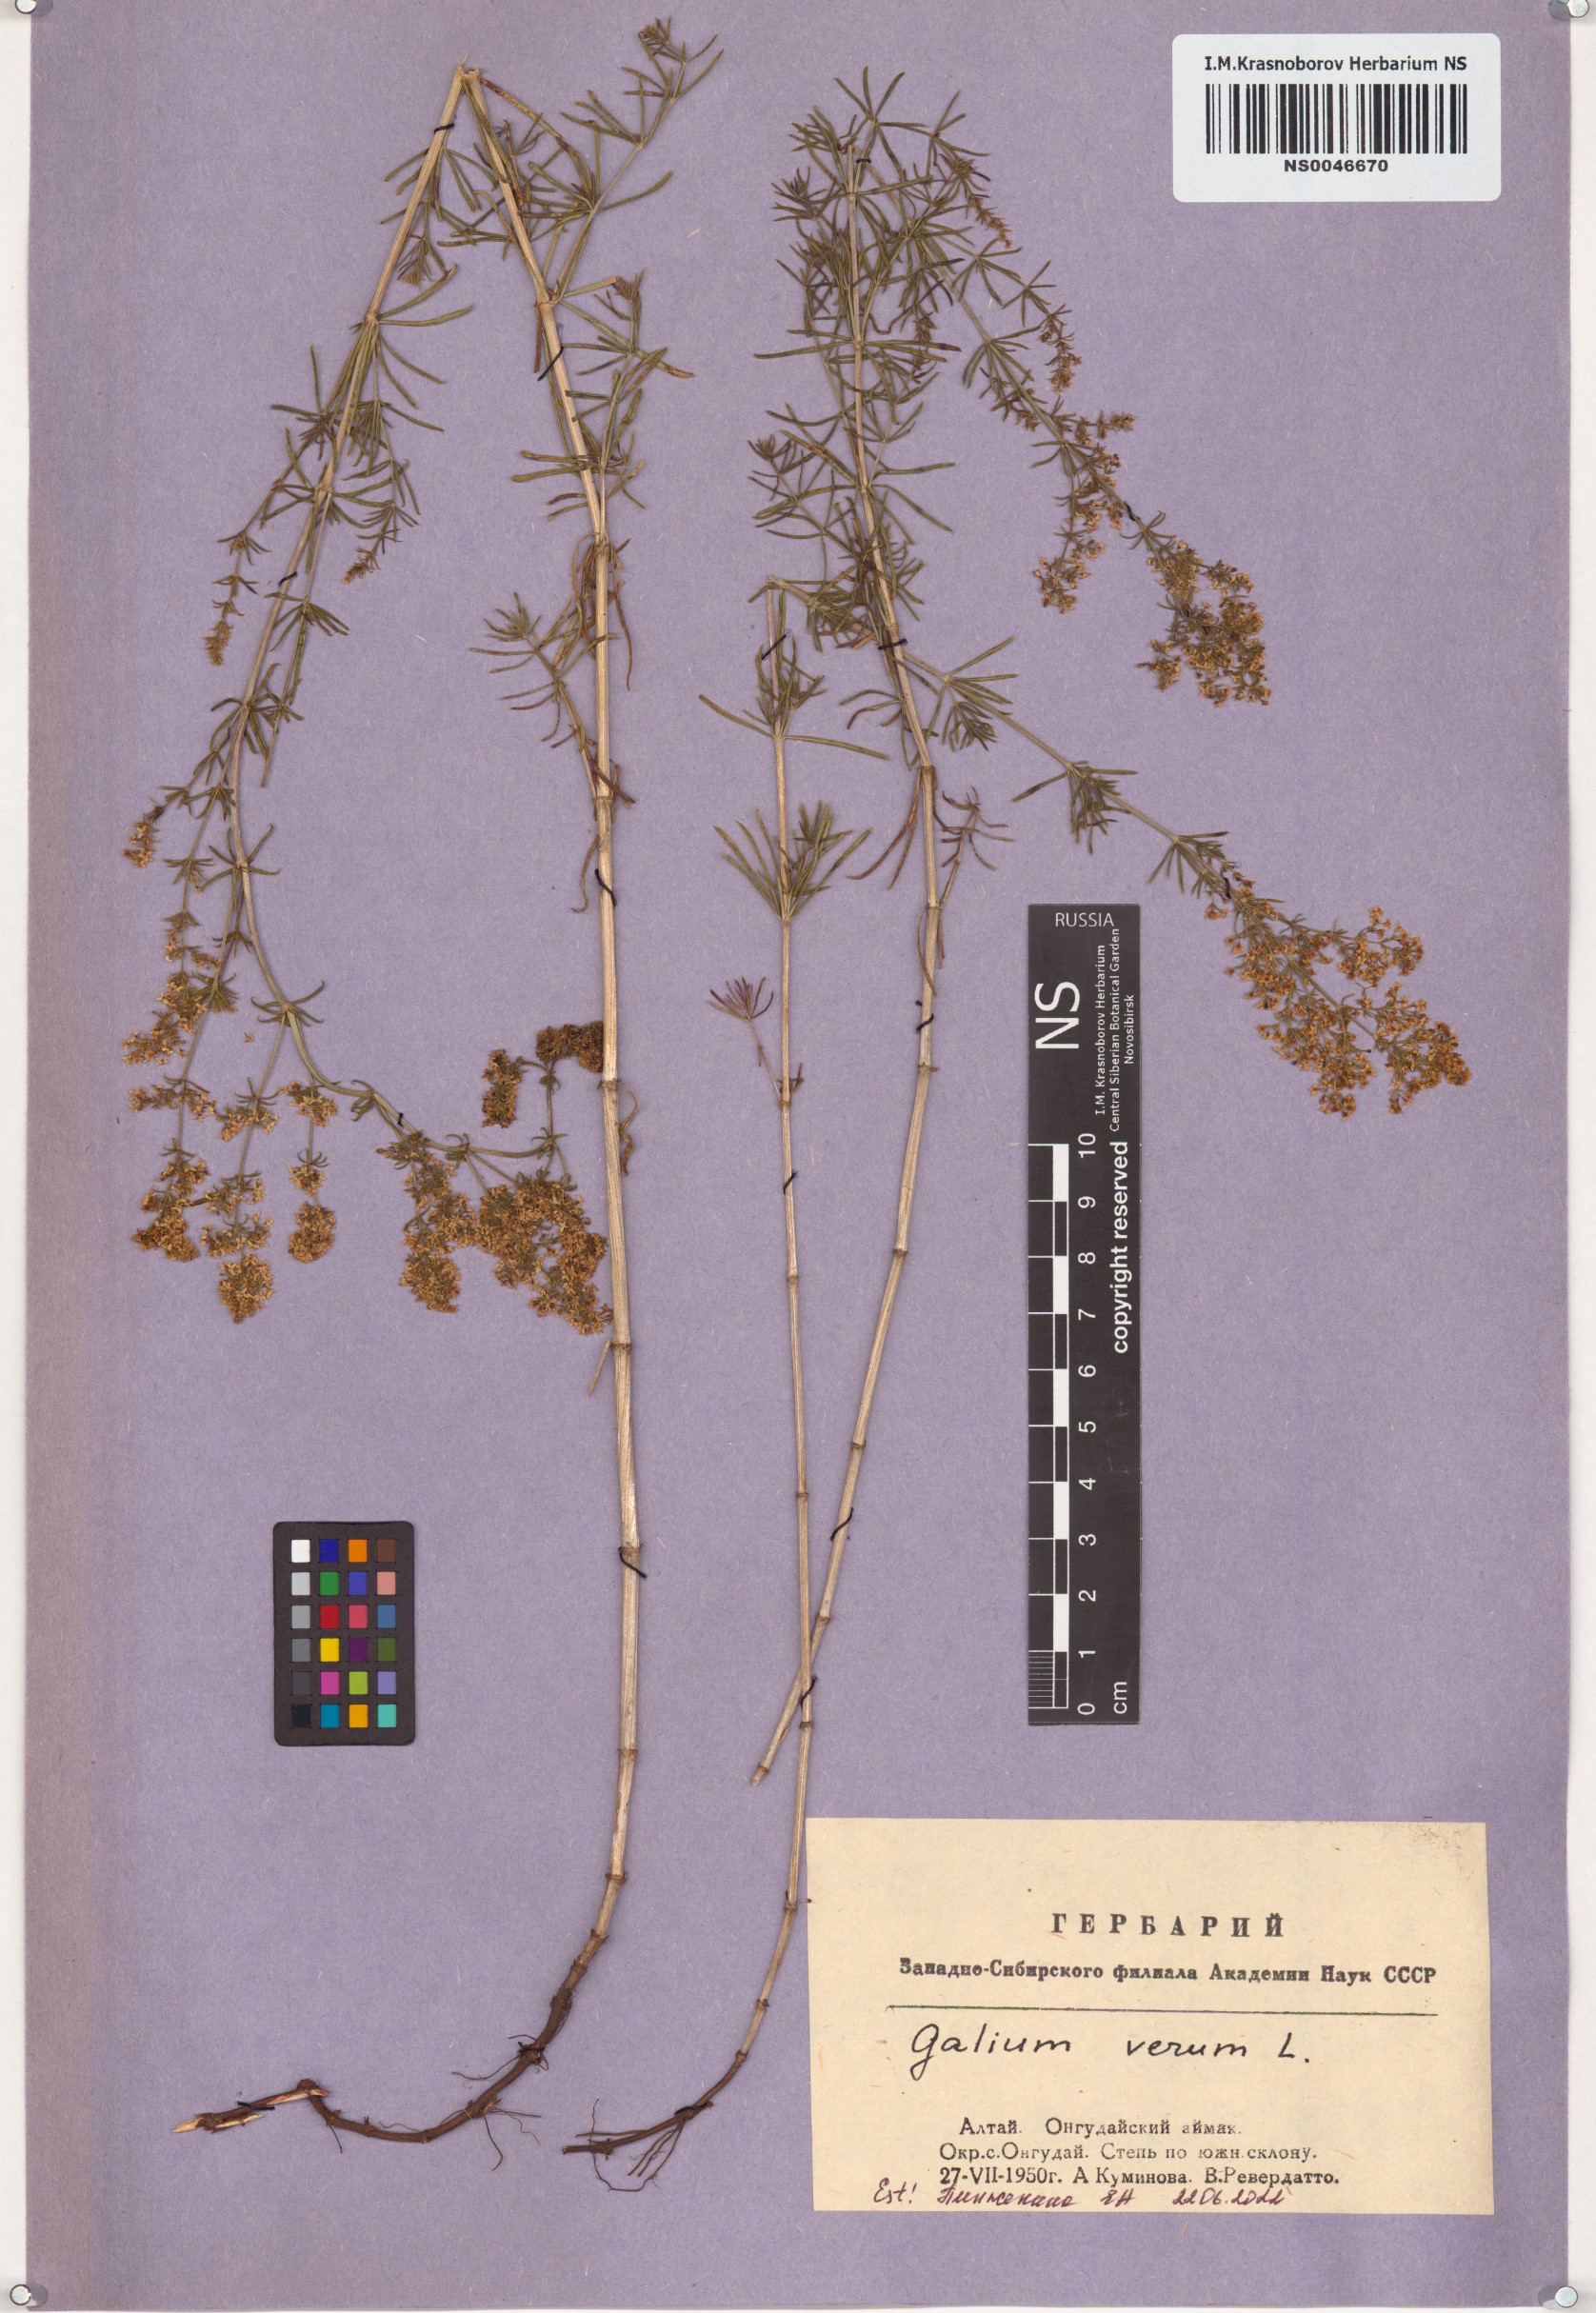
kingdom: Plantae
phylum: Tracheophyta
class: Magnoliopsida
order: Gentianales
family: Rubiaceae
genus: Galium
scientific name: Galium verum
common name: Lady's bedstraw
